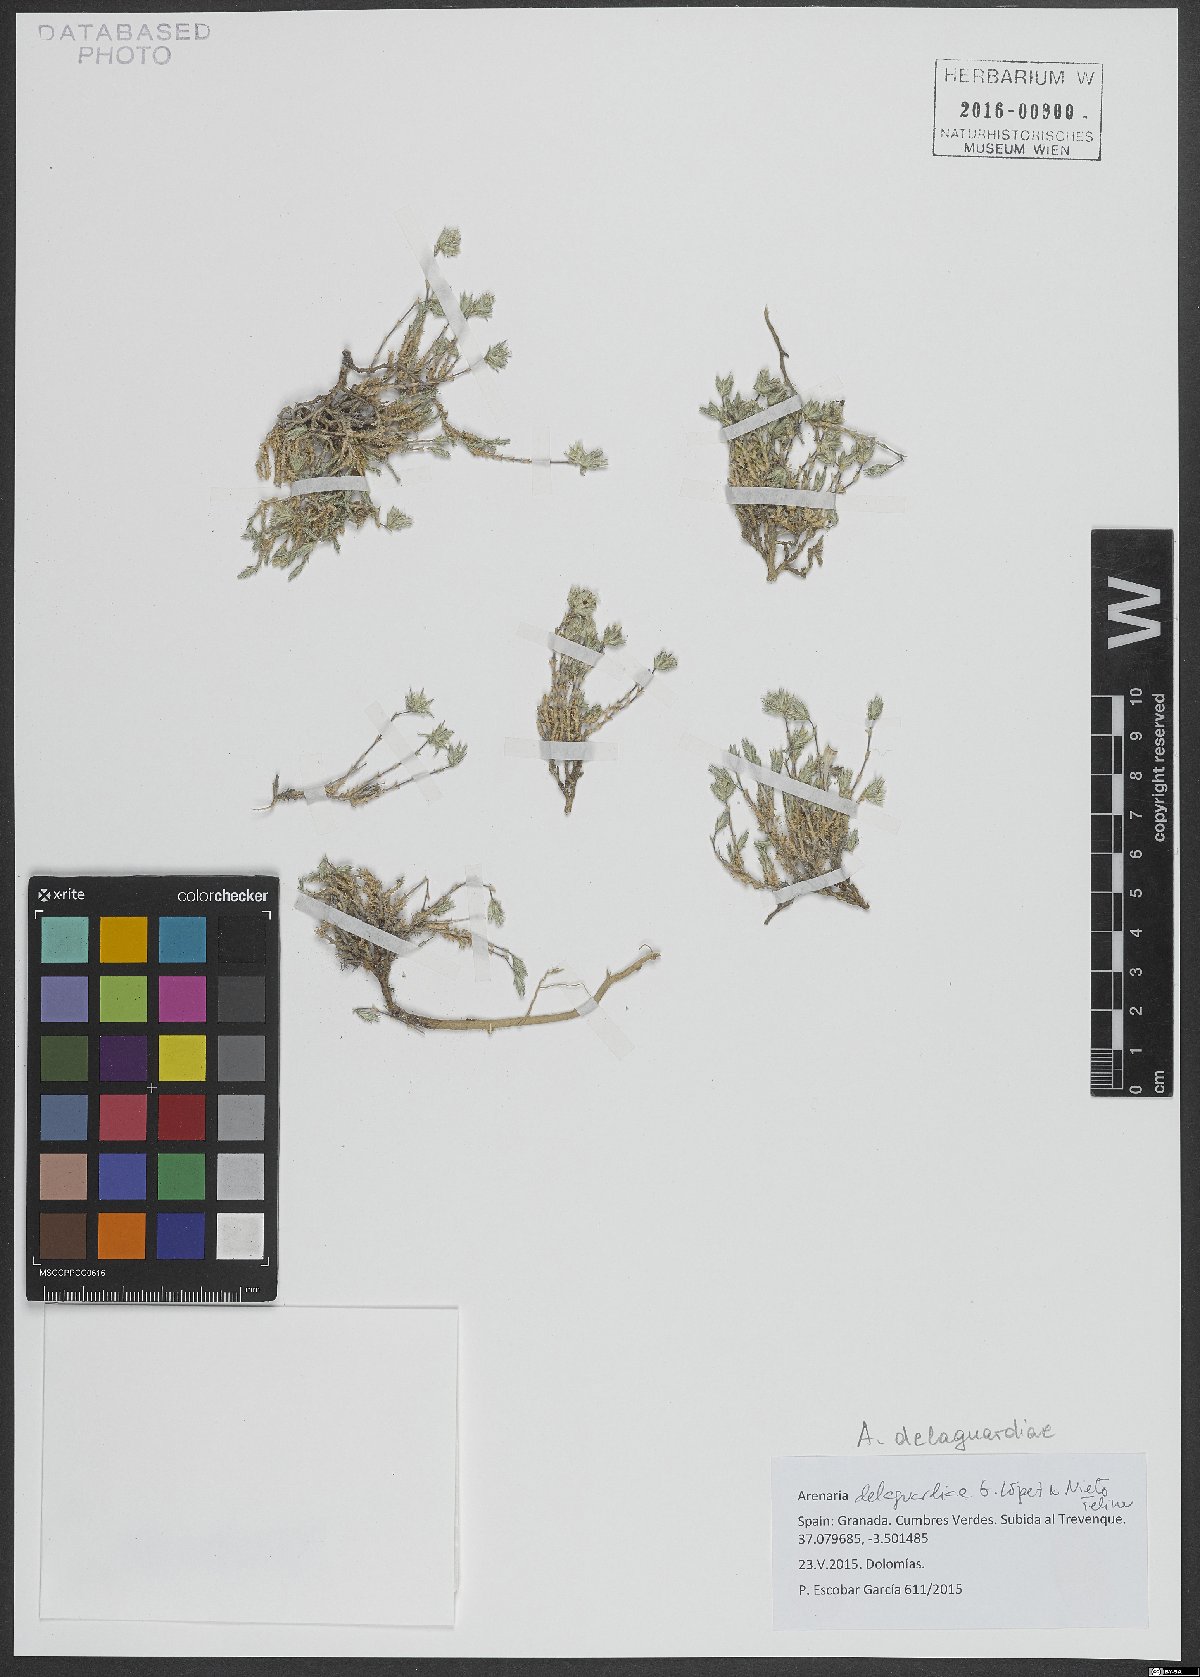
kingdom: Plantae
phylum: Tracheophyta
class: Magnoliopsida
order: Caryophyllales
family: Caryophyllaceae
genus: Arenaria
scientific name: Arenaria delaguardiae
